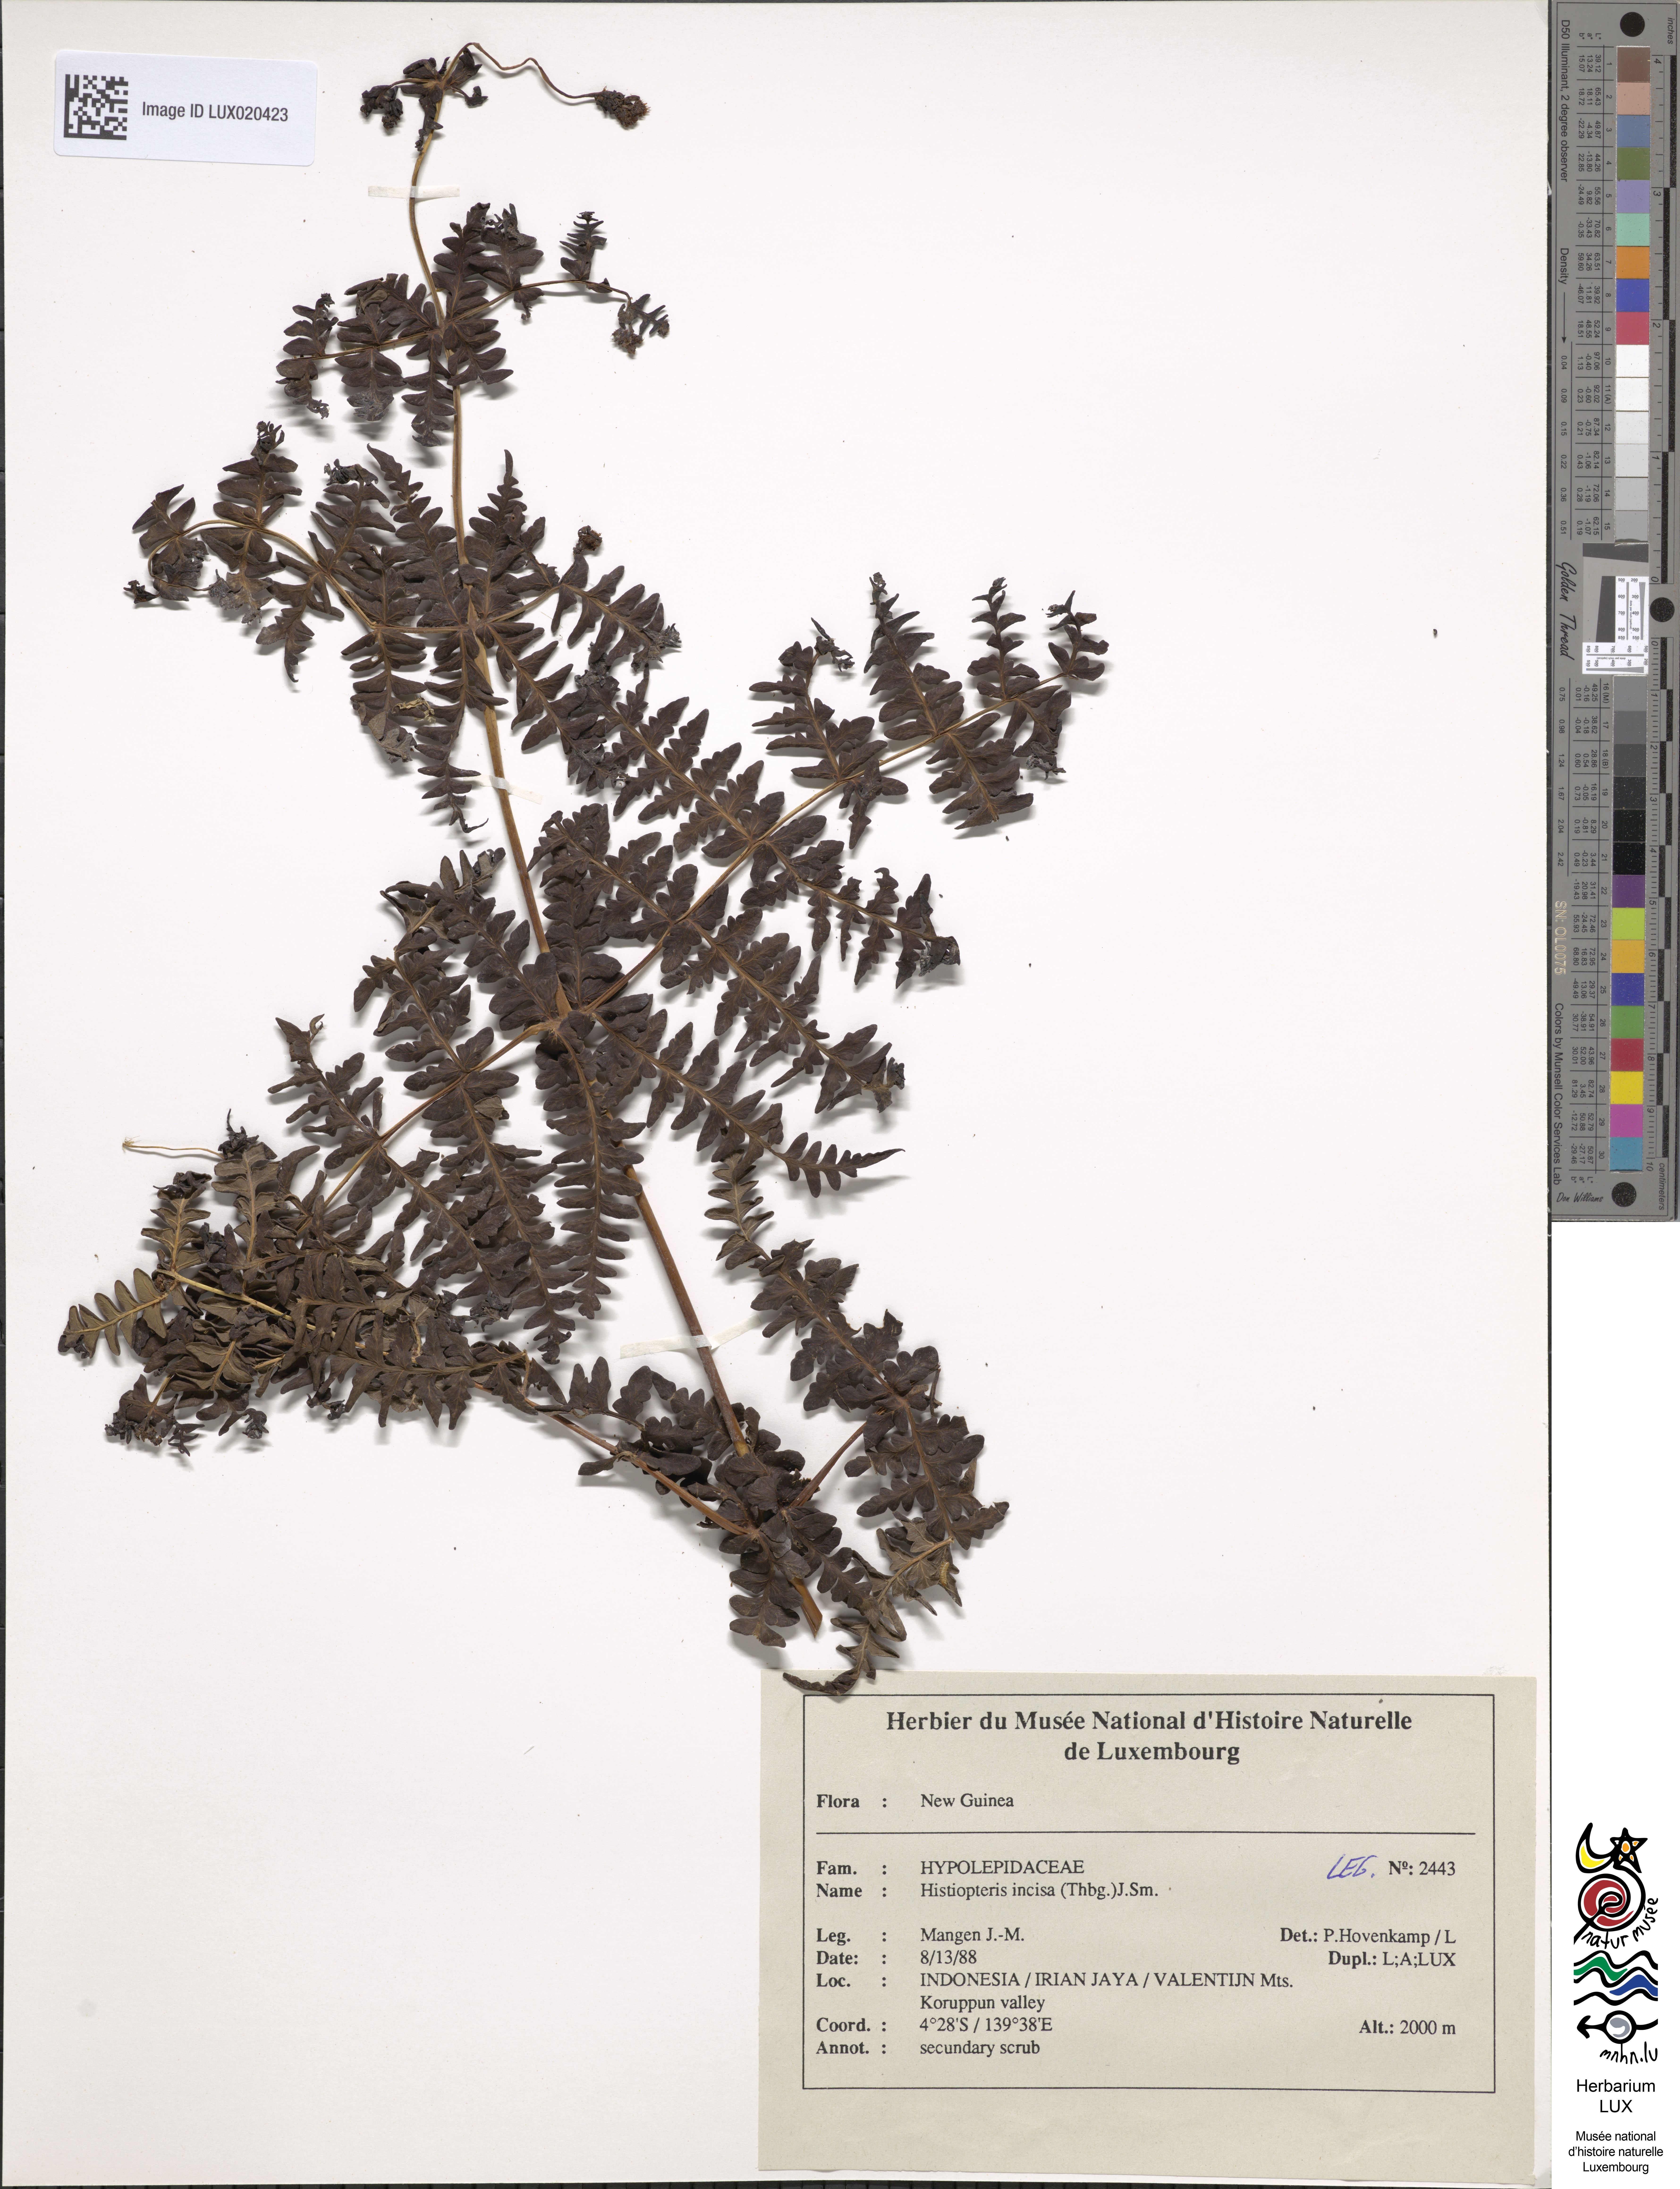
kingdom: Plantae
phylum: Tracheophyta
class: Polypodiopsida
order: Polypodiales
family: Dennstaedtiaceae
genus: Histiopteris
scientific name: Histiopteris incisa
